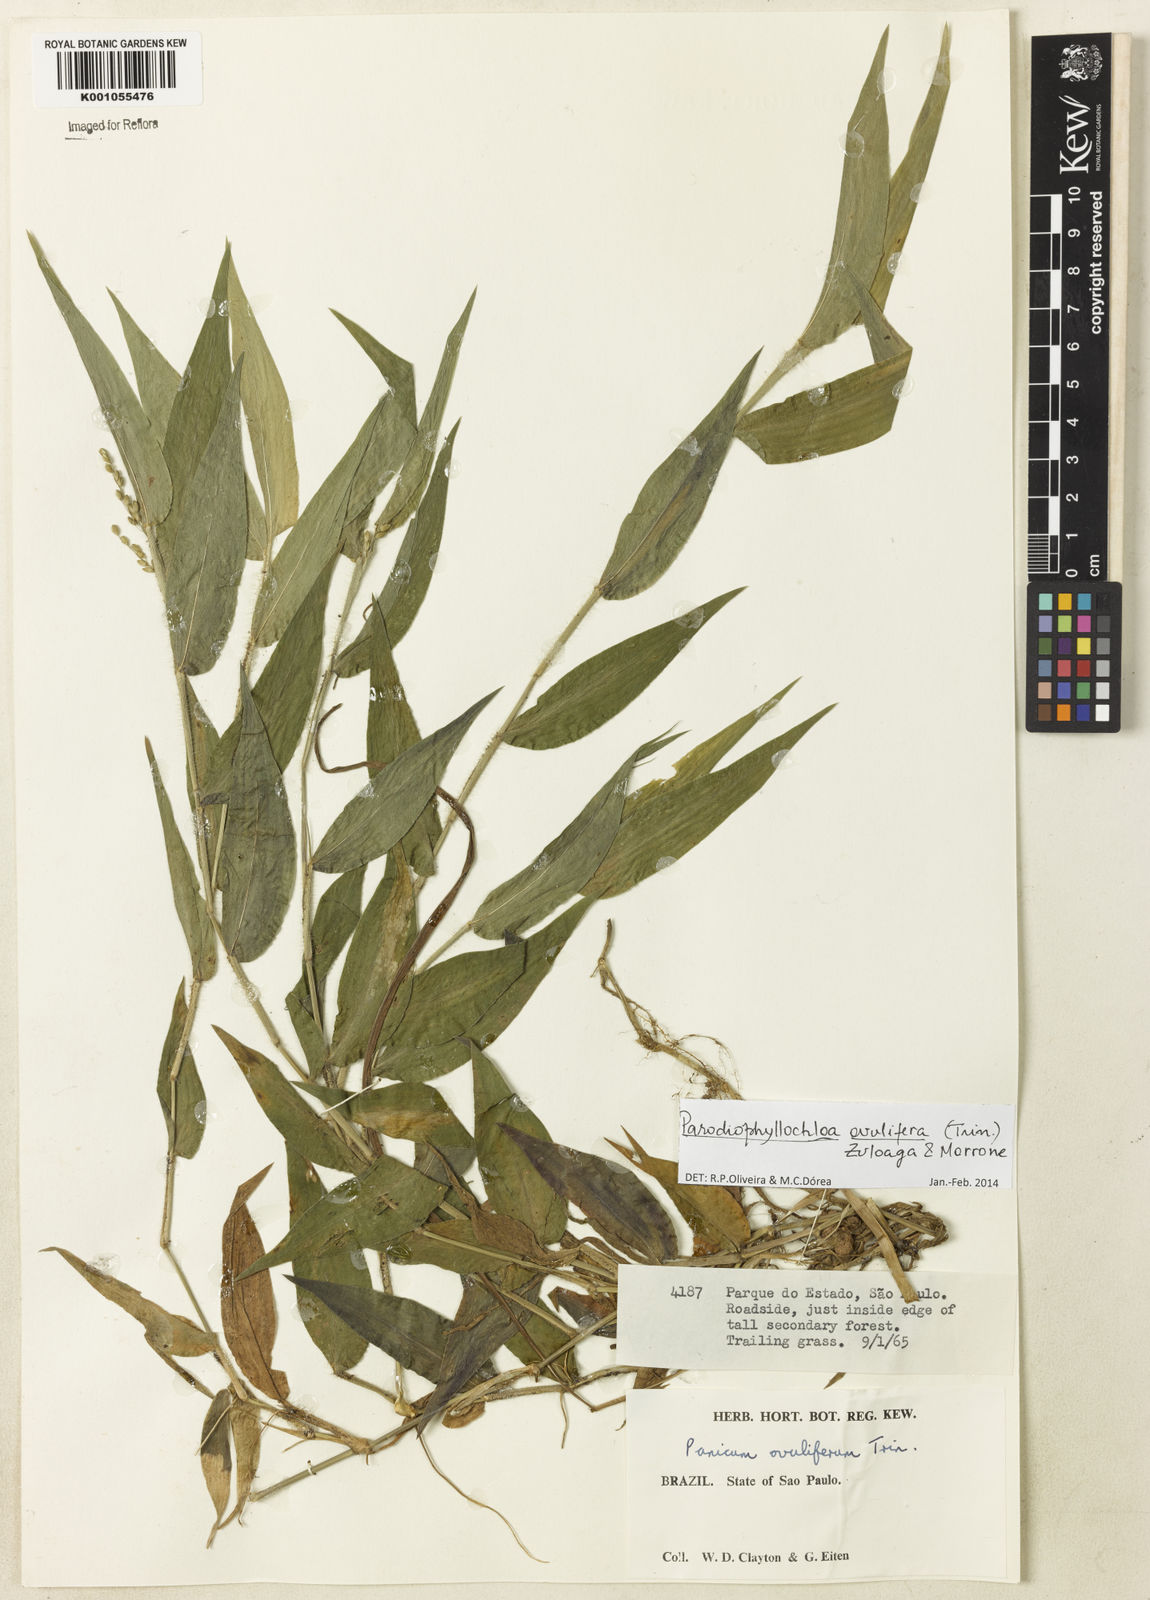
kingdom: Plantae
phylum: Tracheophyta
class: Liliopsida
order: Poales
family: Poaceae
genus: Parodiophyllochloa
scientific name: Parodiophyllochloa ovulifera
